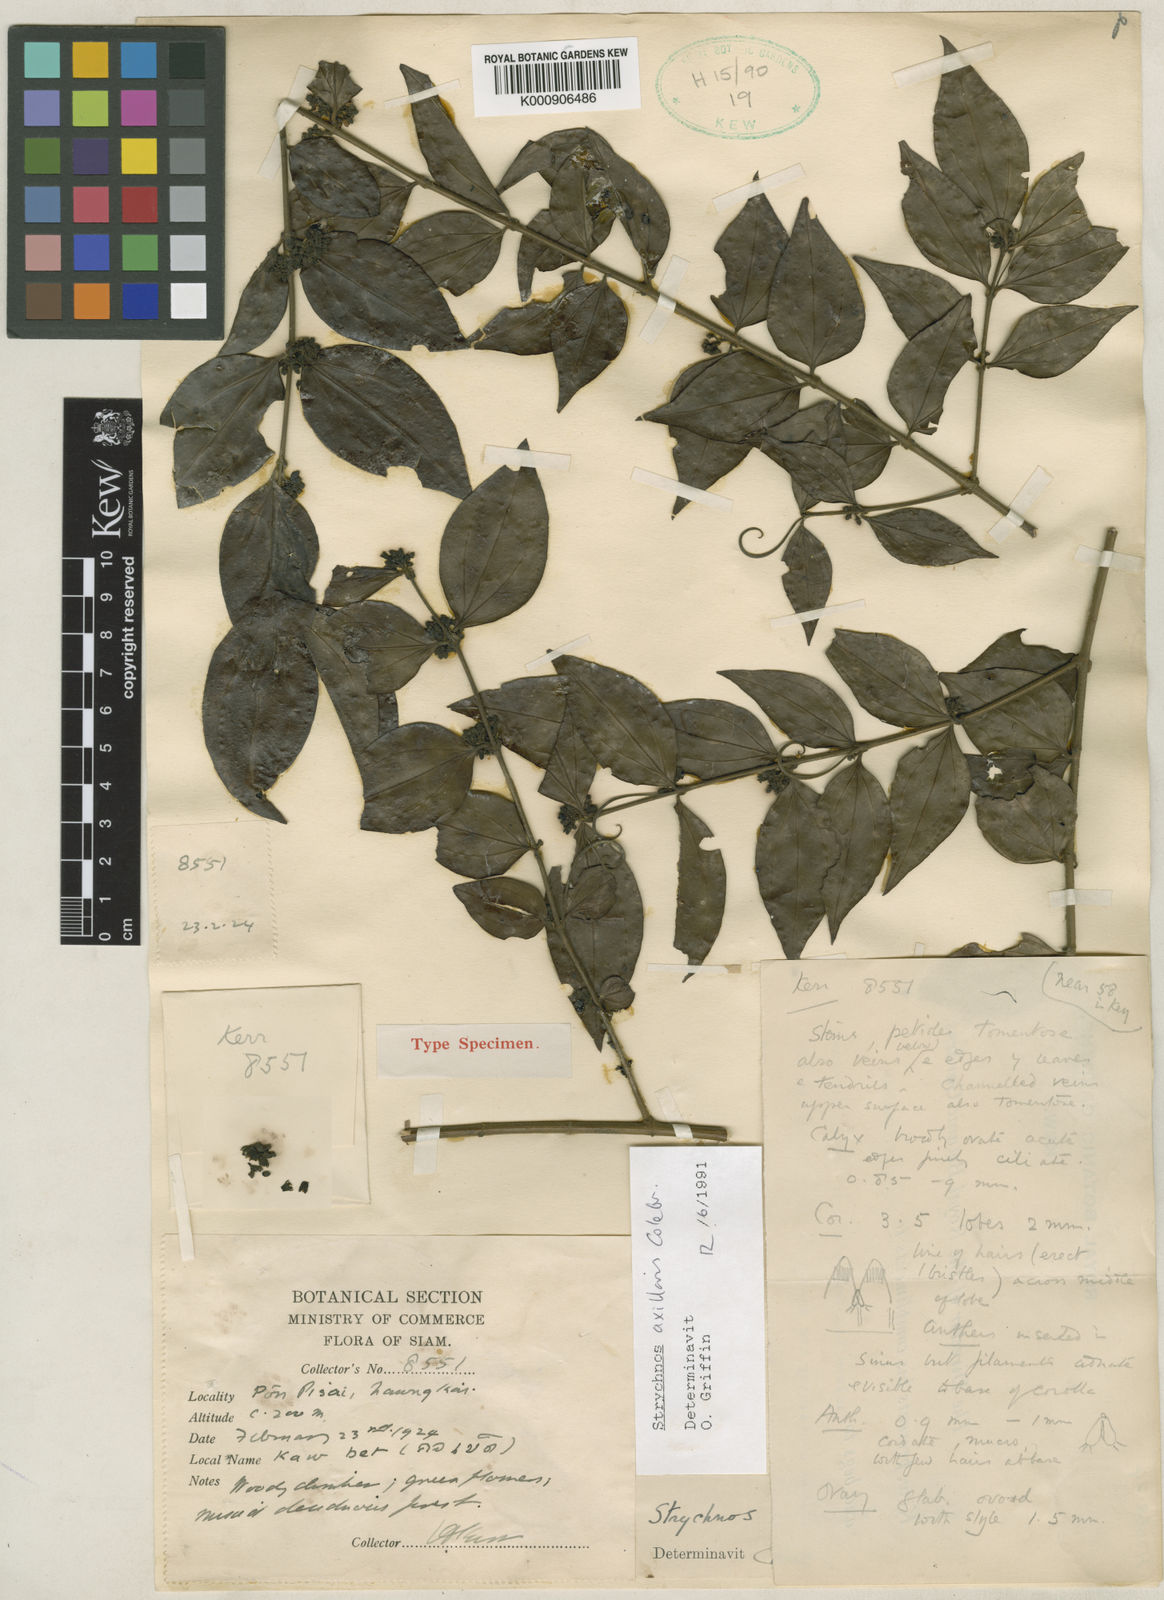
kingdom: Plantae
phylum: Tracheophyta
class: Magnoliopsida
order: Gentianales
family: Loganiaceae
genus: Strychnos
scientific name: Strychnos axillaris
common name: Strychninebush
